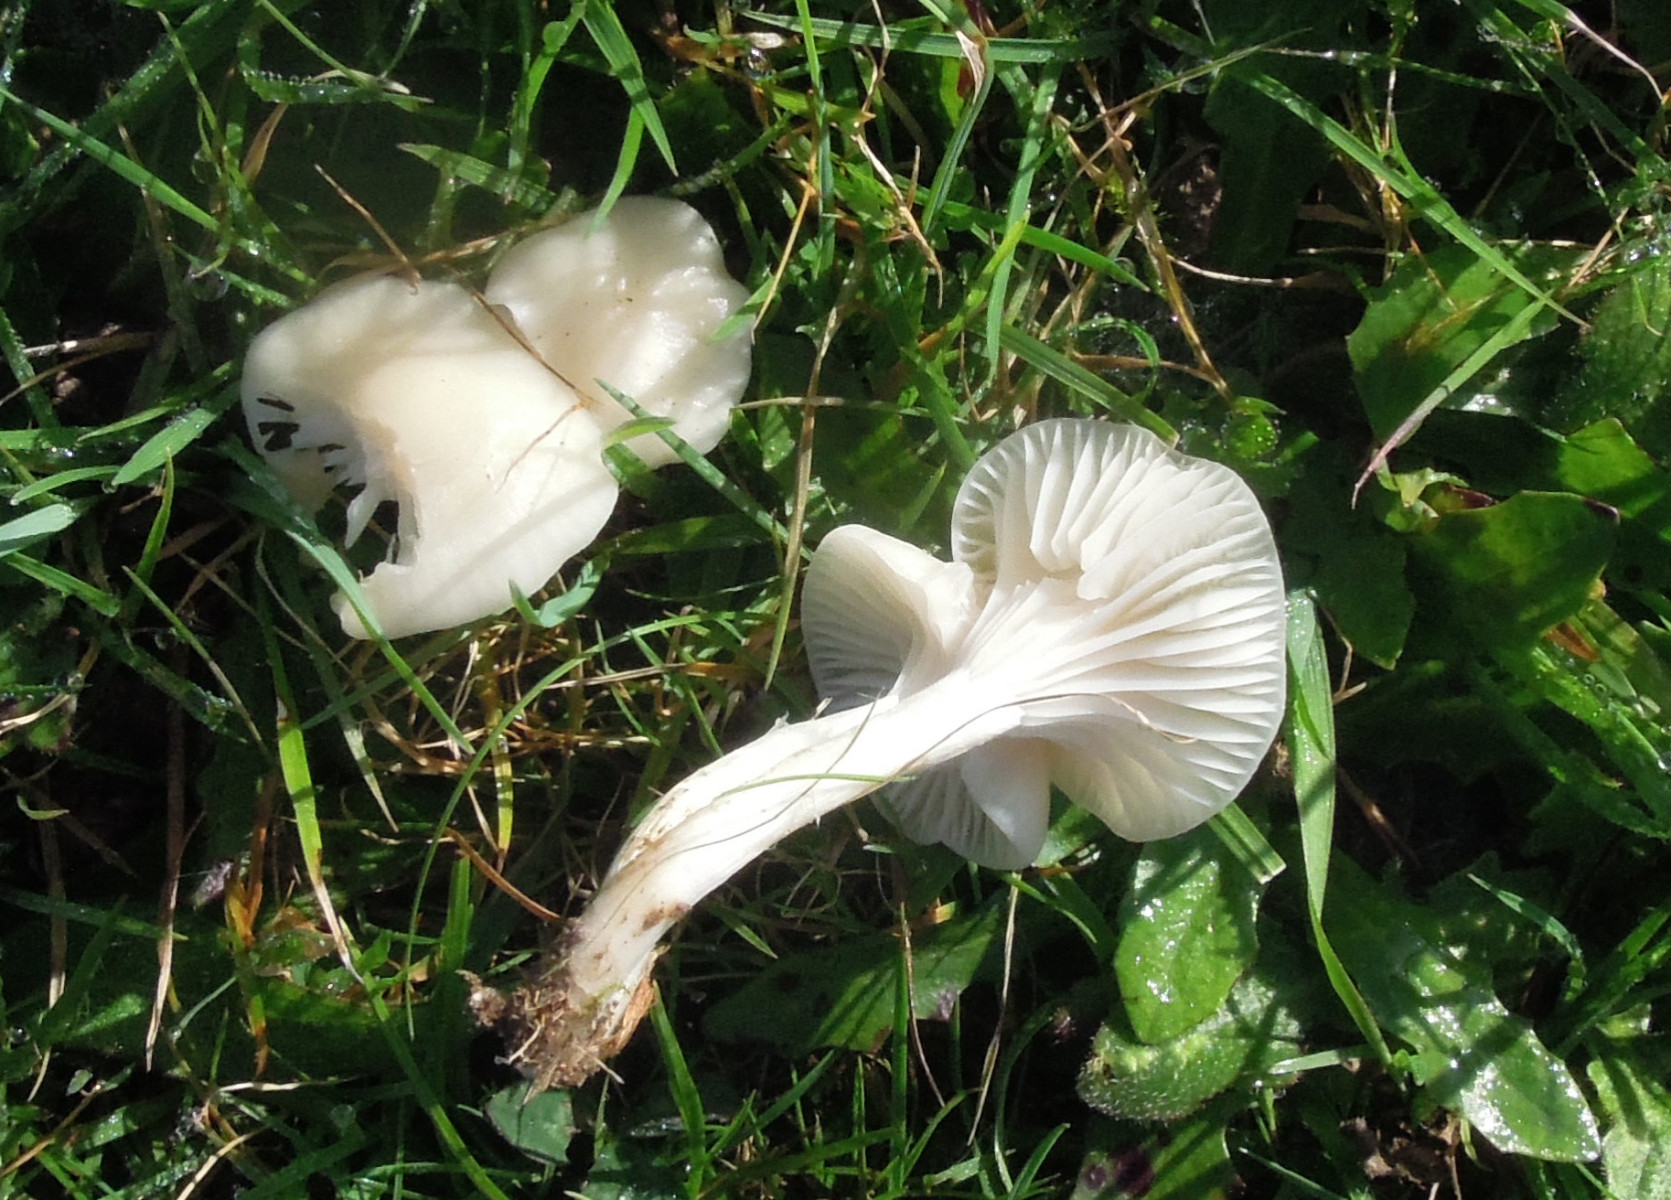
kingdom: Fungi
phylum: Basidiomycota
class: Agaricomycetes
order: Agaricales
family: Hygrophoraceae
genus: Cuphophyllus
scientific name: Cuphophyllus virgineus
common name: snehvid vokshat
